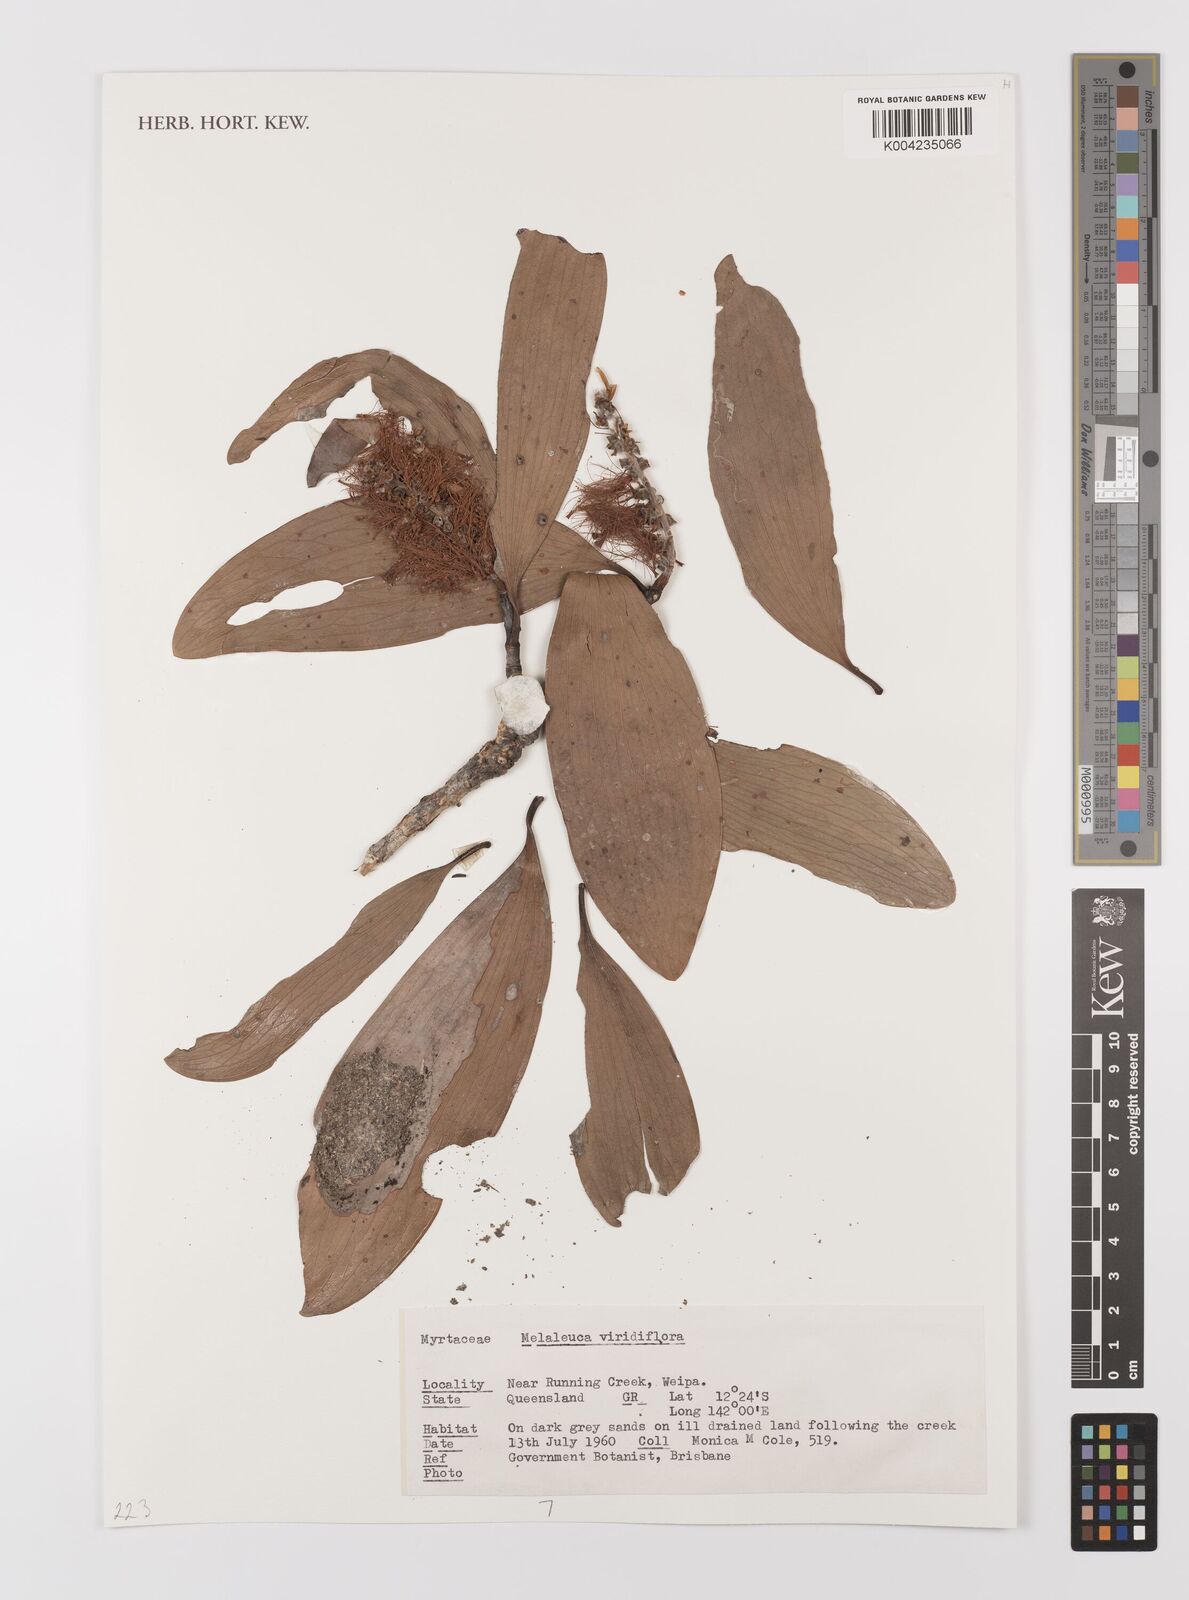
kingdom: Plantae
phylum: Tracheophyta
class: Magnoliopsida
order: Myrtales
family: Myrtaceae
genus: Melaleuca
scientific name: Melaleuca viridiflora
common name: Brown-leaved paperbark
